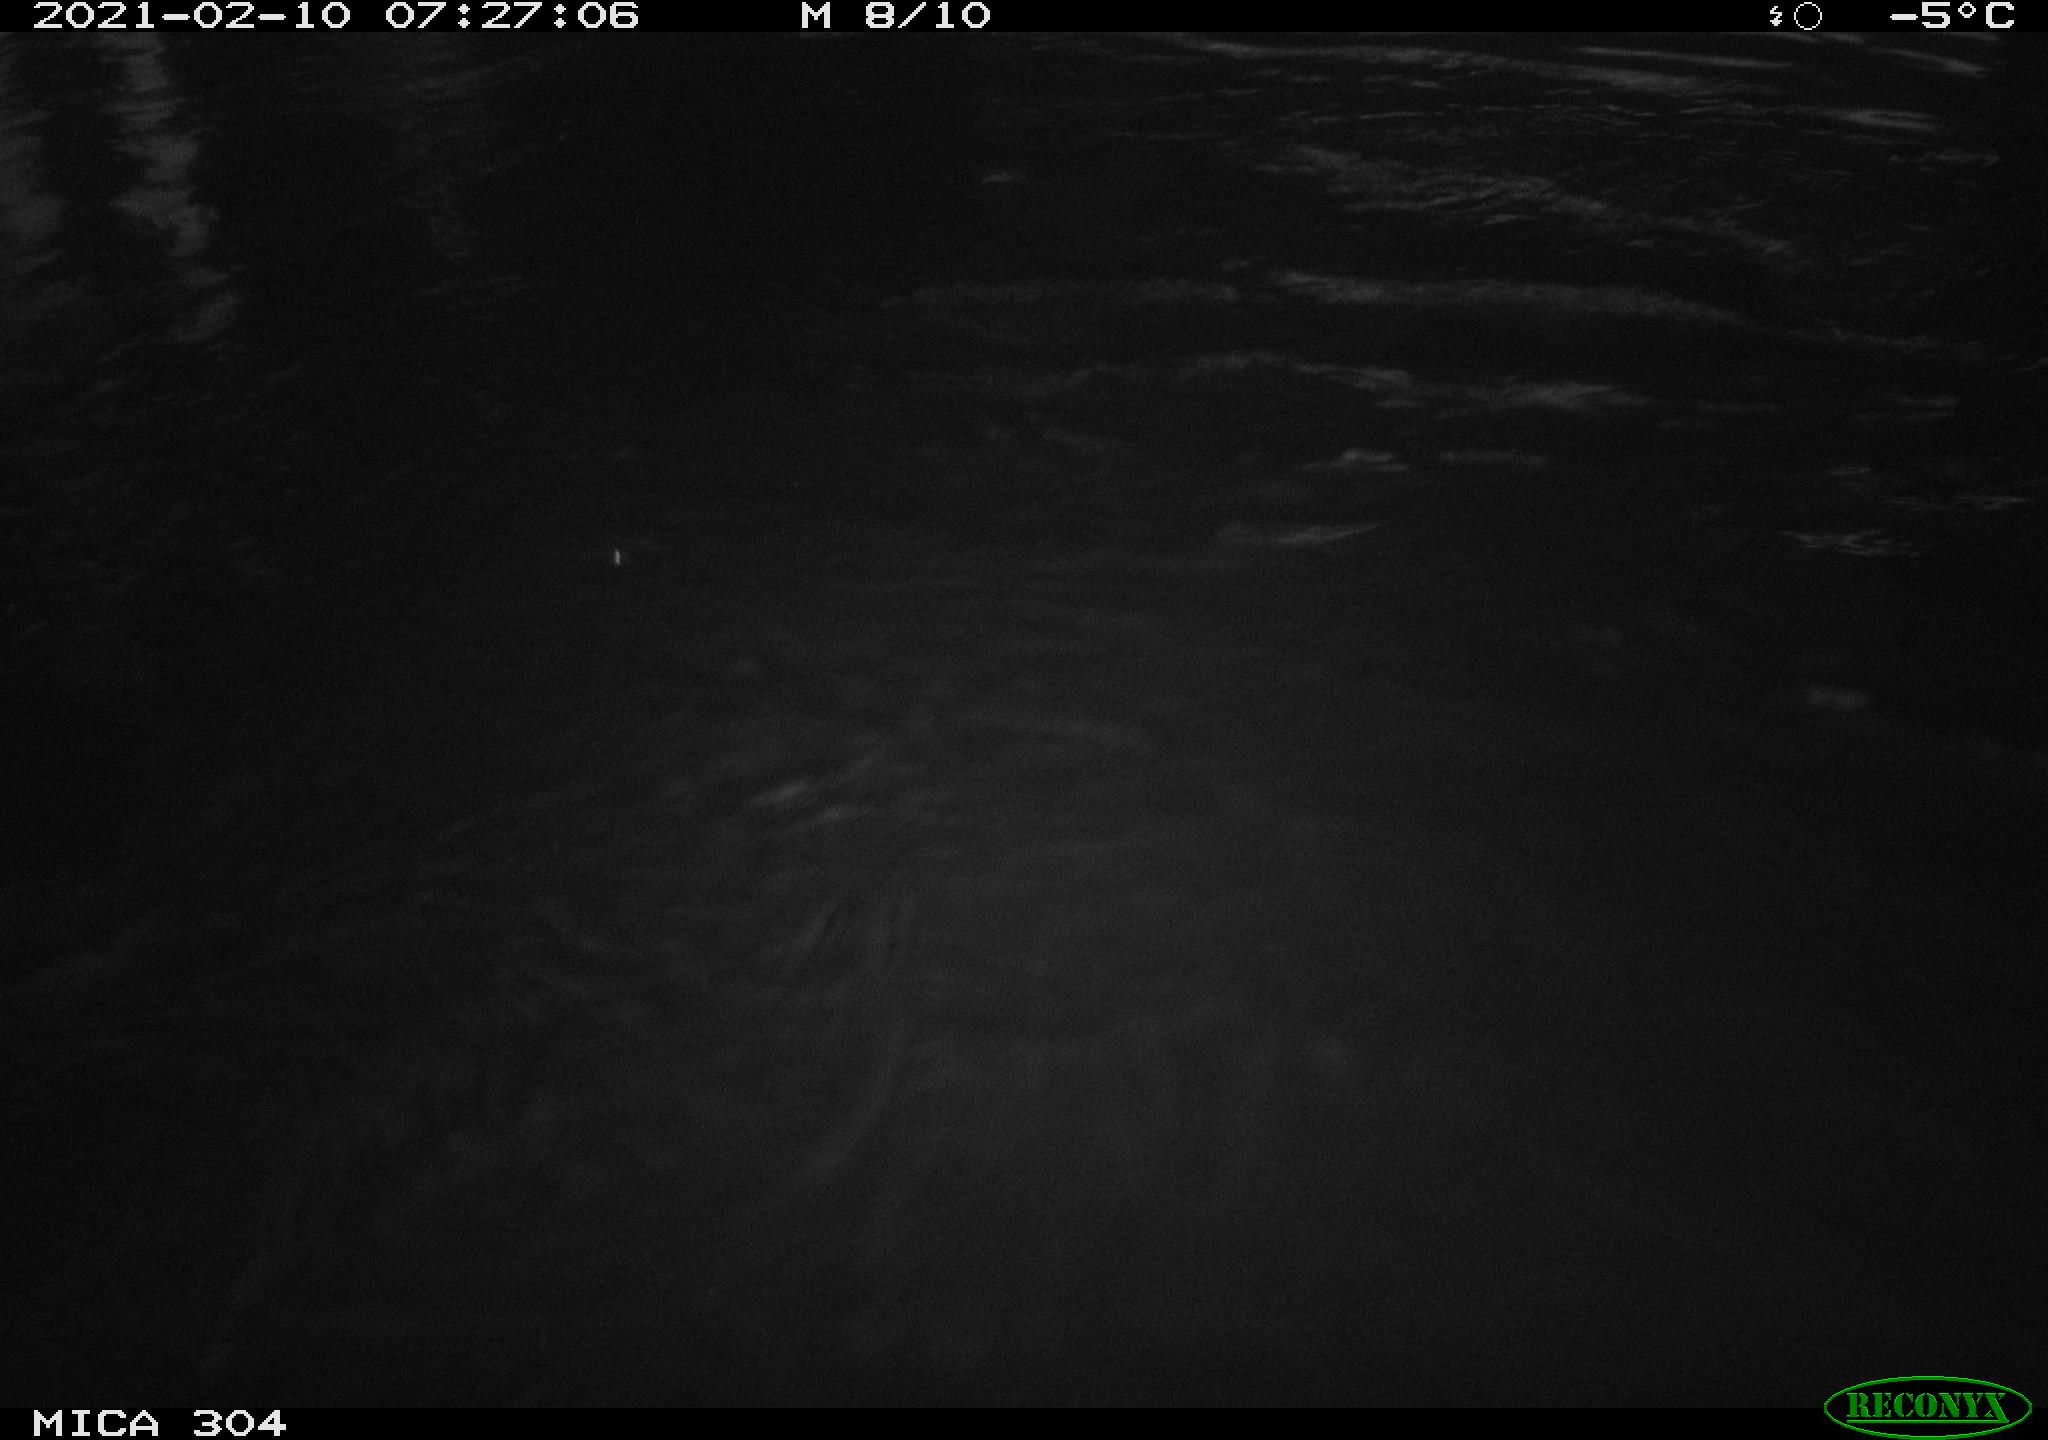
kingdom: Animalia
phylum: Chordata
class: Aves
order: Anseriformes
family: Anatidae
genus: Anas
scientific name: Anas platyrhynchos
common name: Mallard
